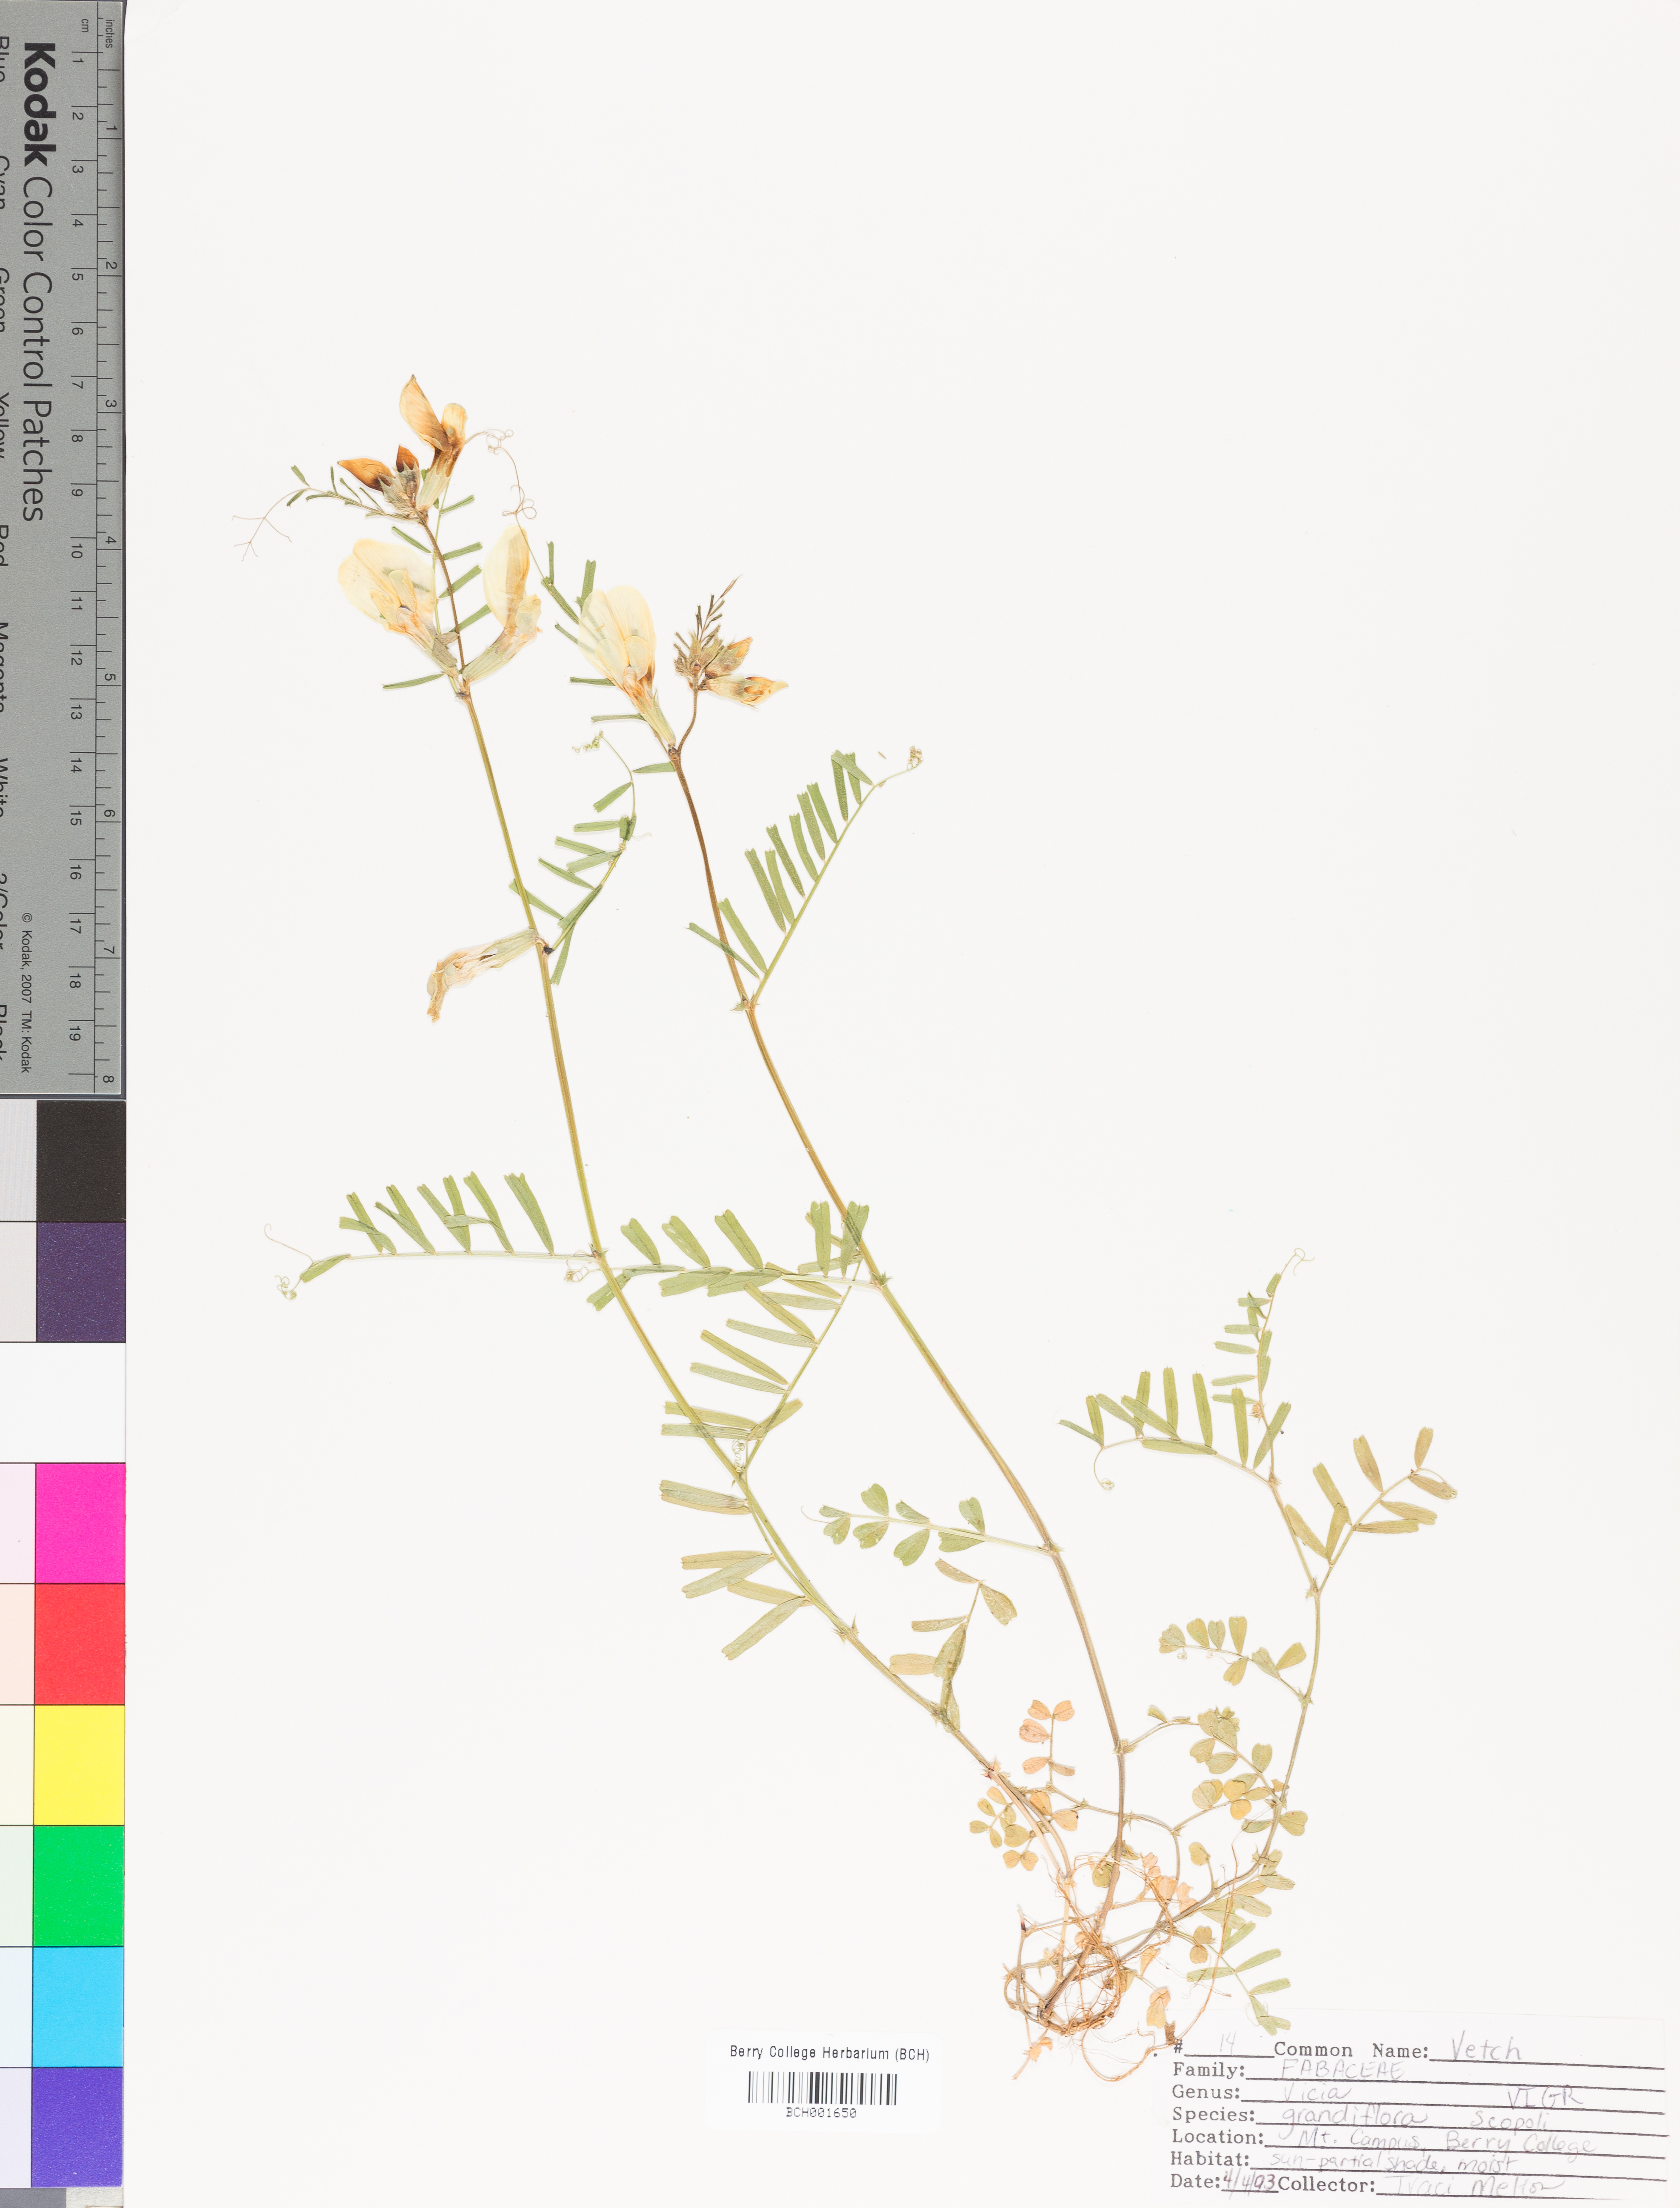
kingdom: Plantae
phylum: Tracheophyta
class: Magnoliopsida
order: Fabales
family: Fabaceae
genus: Vicia
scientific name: Vicia grandiflora
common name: Large yellow vetch
